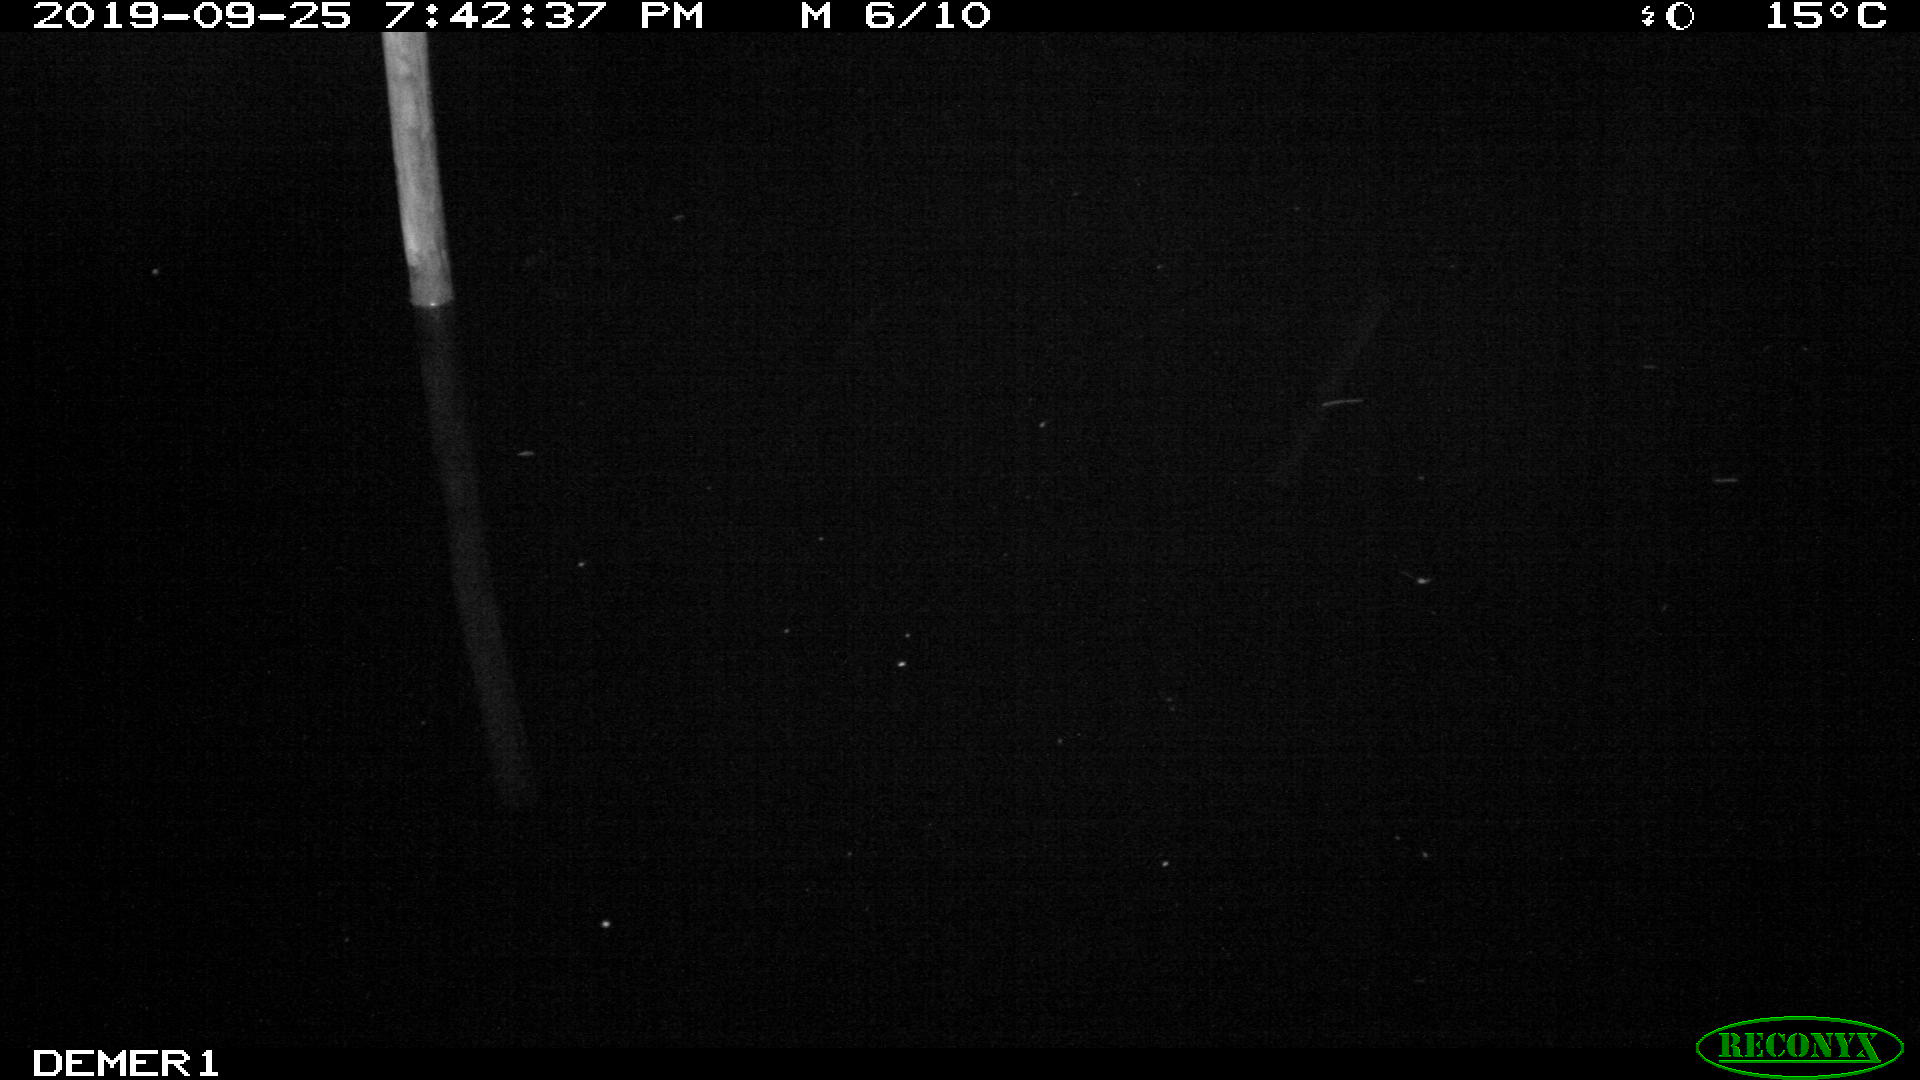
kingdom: Animalia
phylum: Chordata
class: Aves
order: Anseriformes
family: Anatidae
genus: Anas
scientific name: Anas platyrhynchos
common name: Mallard
